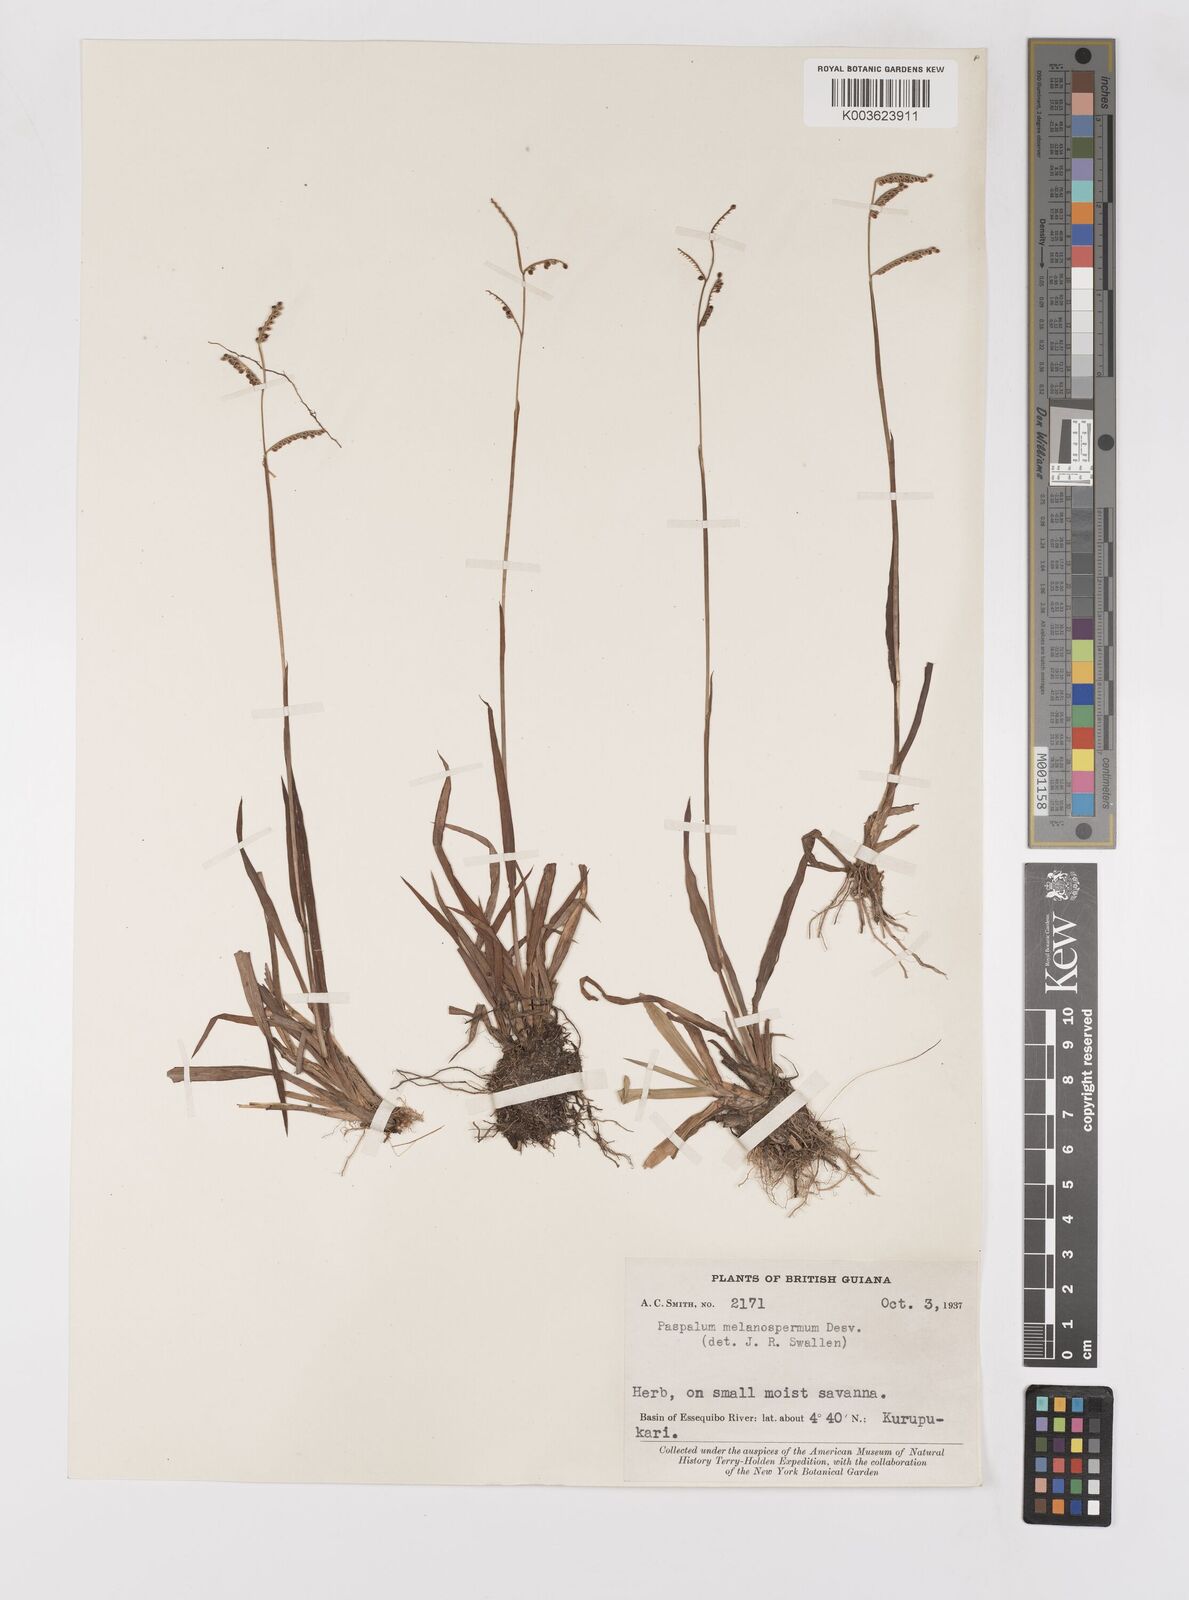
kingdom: Plantae
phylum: Tracheophyta
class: Liliopsida
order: Poales
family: Poaceae
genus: Paspalum
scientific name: Paspalum melanospermum
